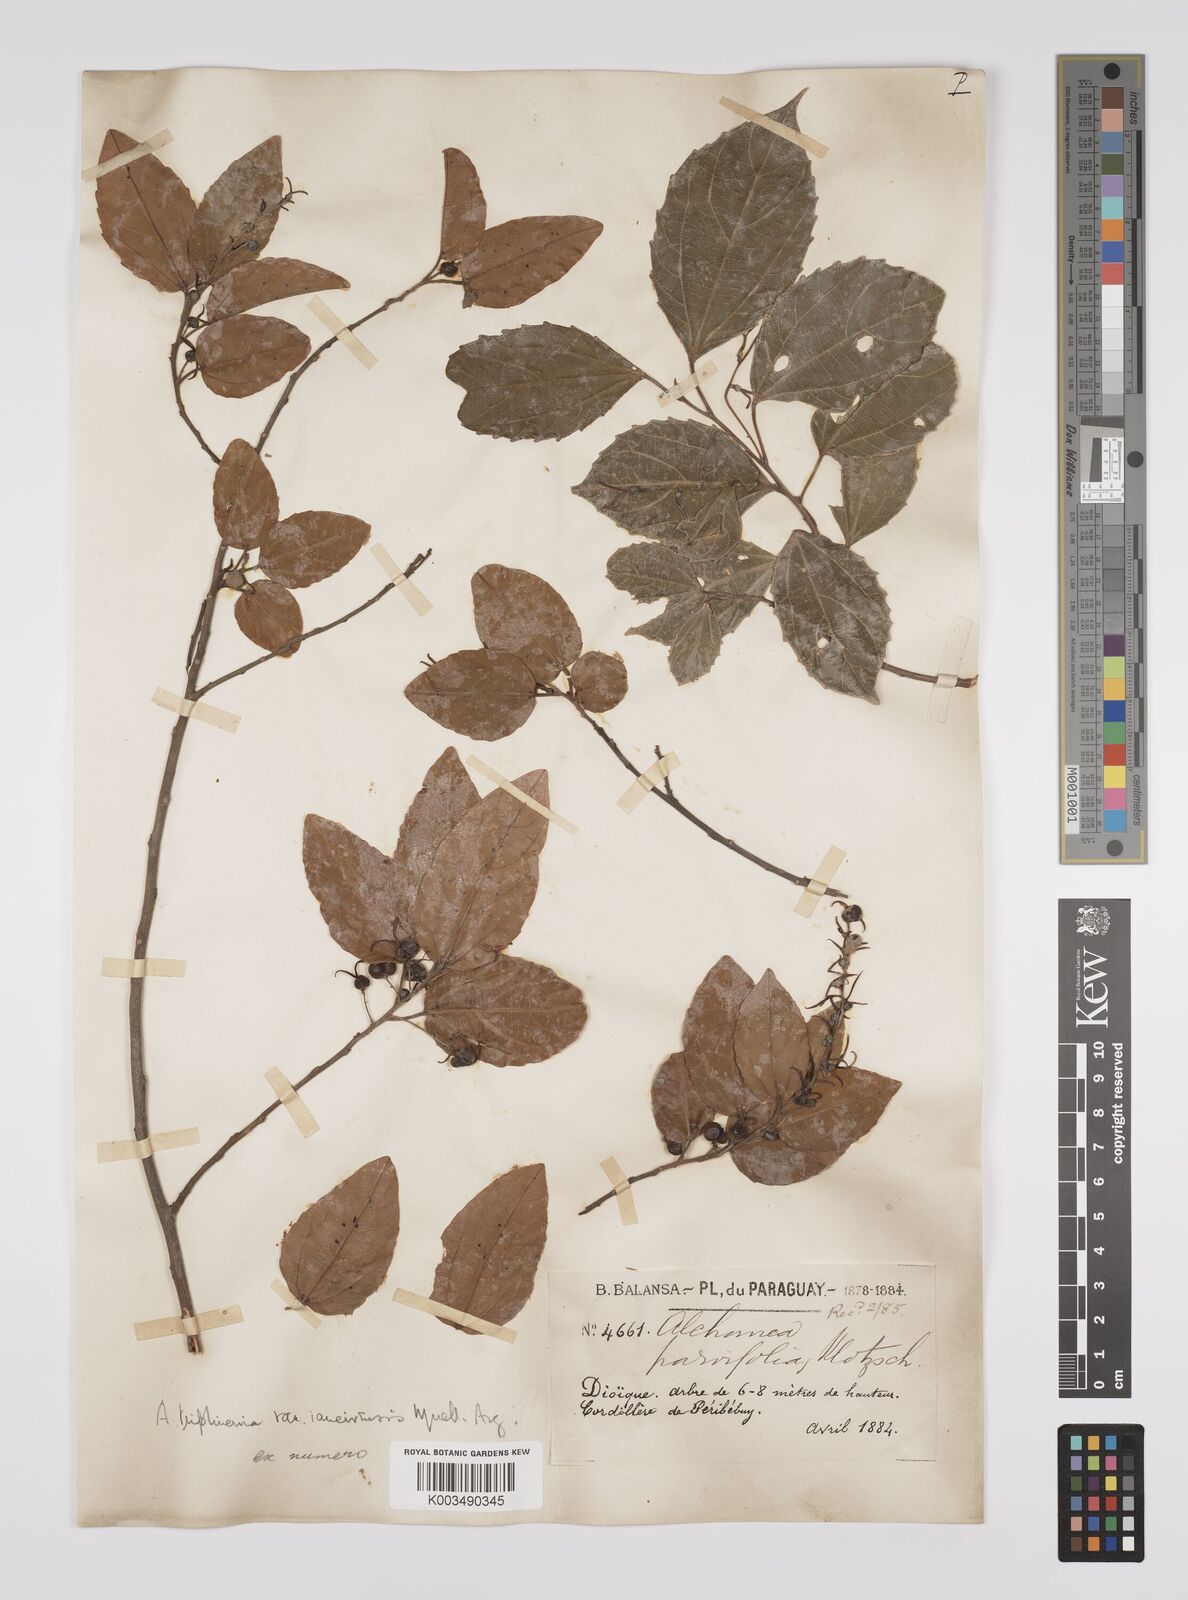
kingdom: Plantae
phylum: Tracheophyta
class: Magnoliopsida
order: Malpighiales
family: Euphorbiaceae
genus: Alchornea
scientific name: Alchornea triplinervia
